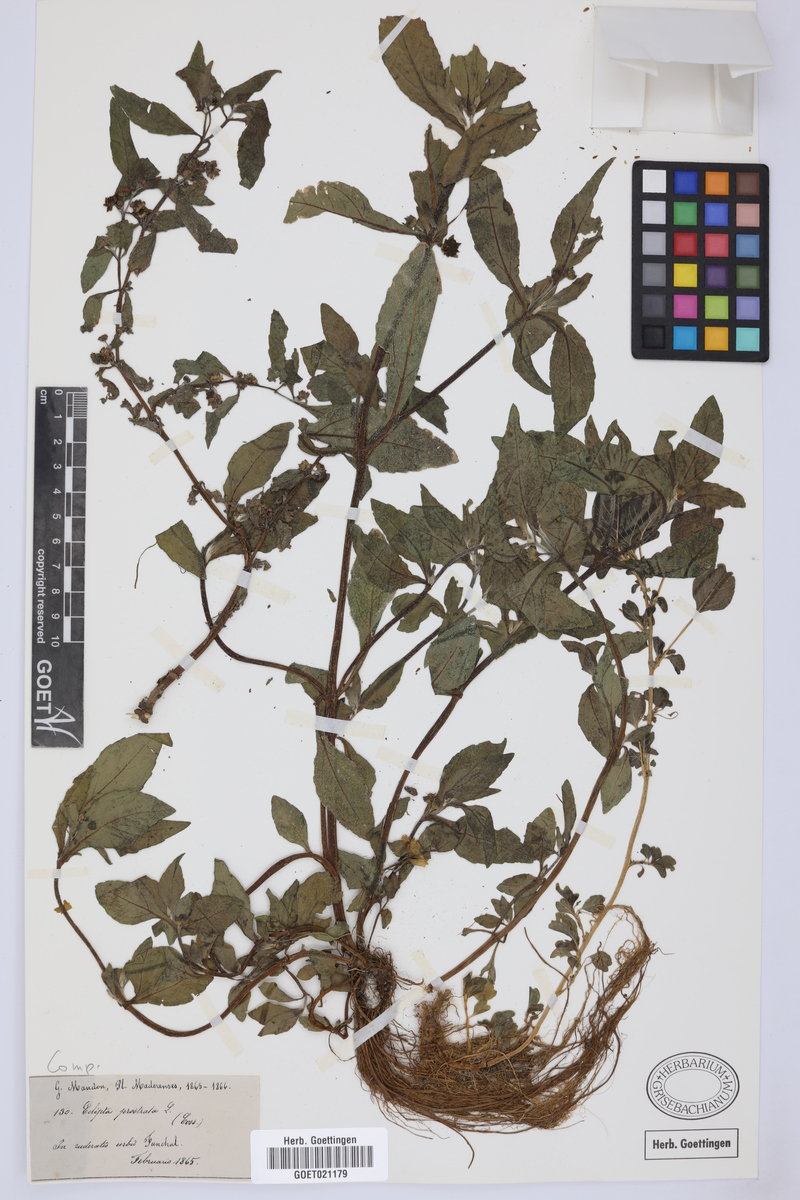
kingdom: Plantae
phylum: Tracheophyta
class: Magnoliopsida
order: Asterales
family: Asteraceae
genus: Eclipta
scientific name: Eclipta prostrata
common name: False daisy
